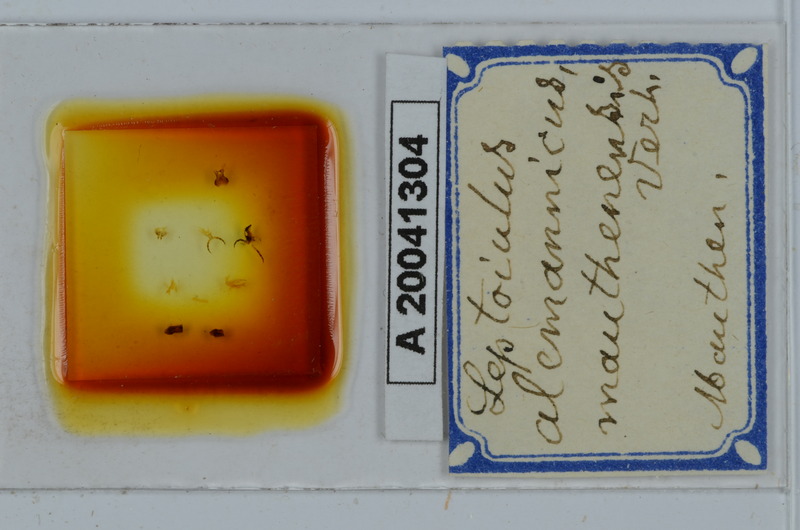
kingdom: Animalia
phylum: Arthropoda
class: Diplopoda
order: Julida
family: Julidae
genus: Leptoiulus
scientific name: Leptoiulus alemannicus
